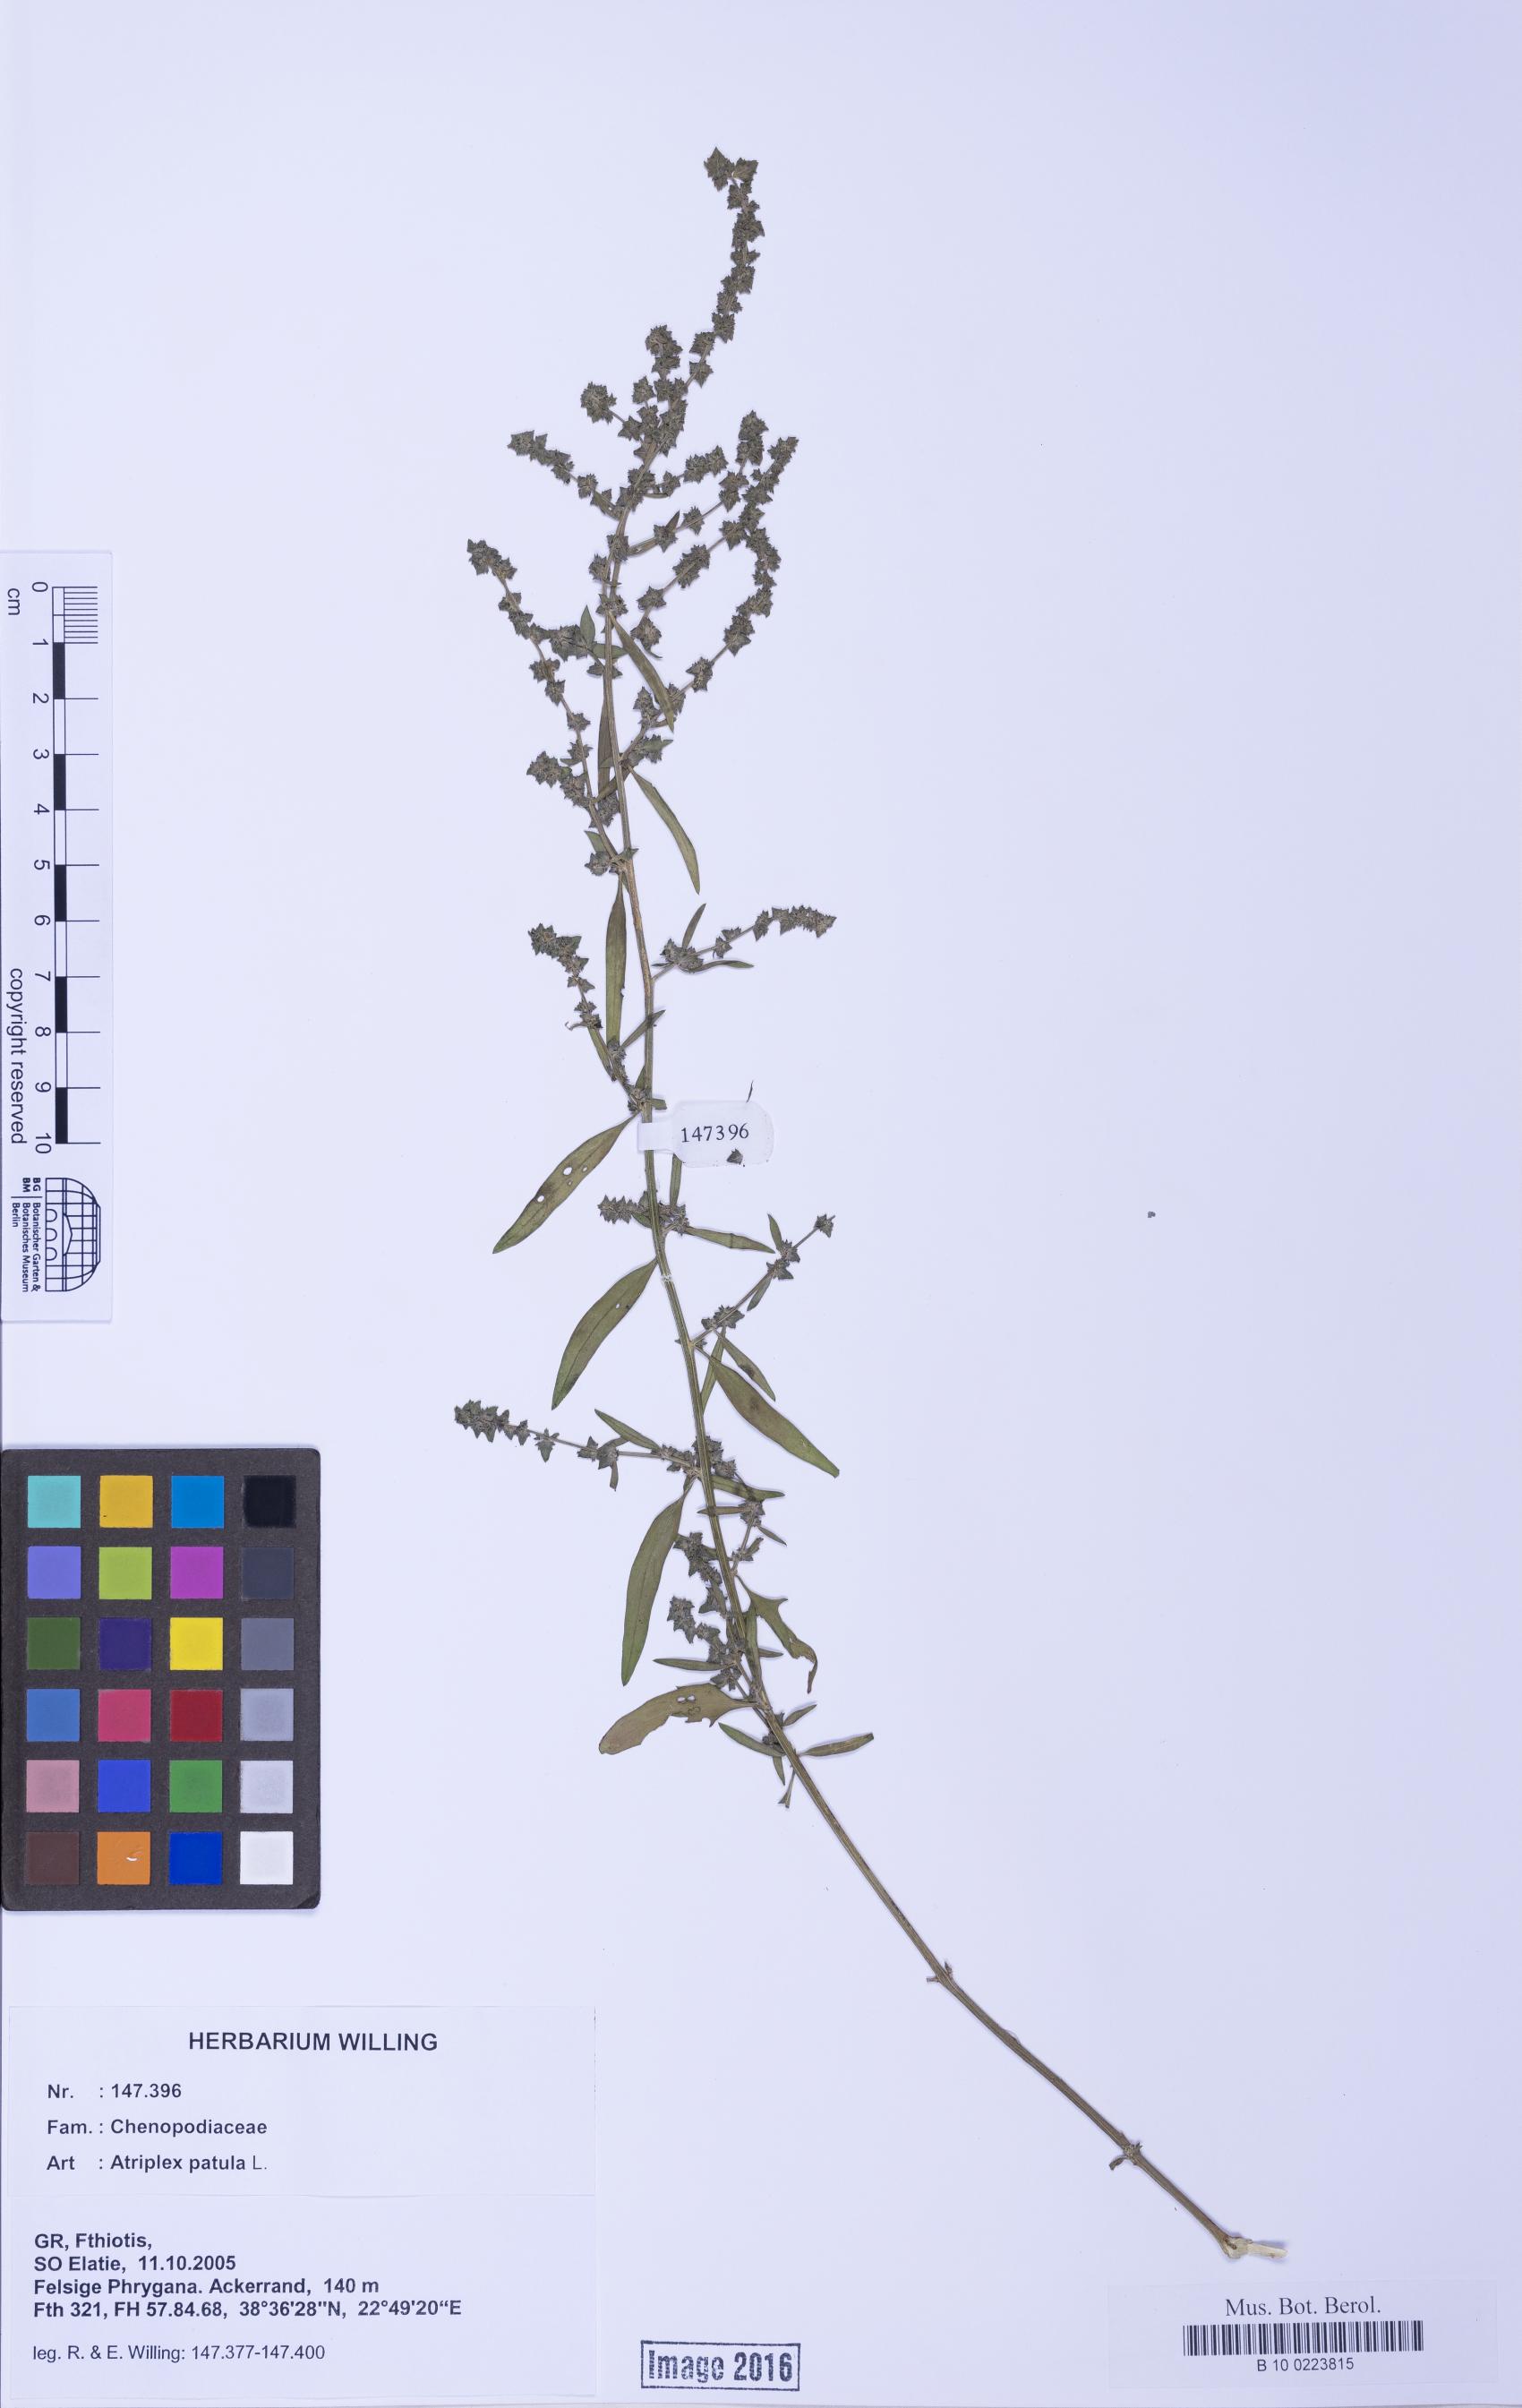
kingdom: Plantae
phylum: Tracheophyta
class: Magnoliopsida
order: Caryophyllales
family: Amaranthaceae
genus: Atriplex
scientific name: Atriplex patula
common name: Common orache
